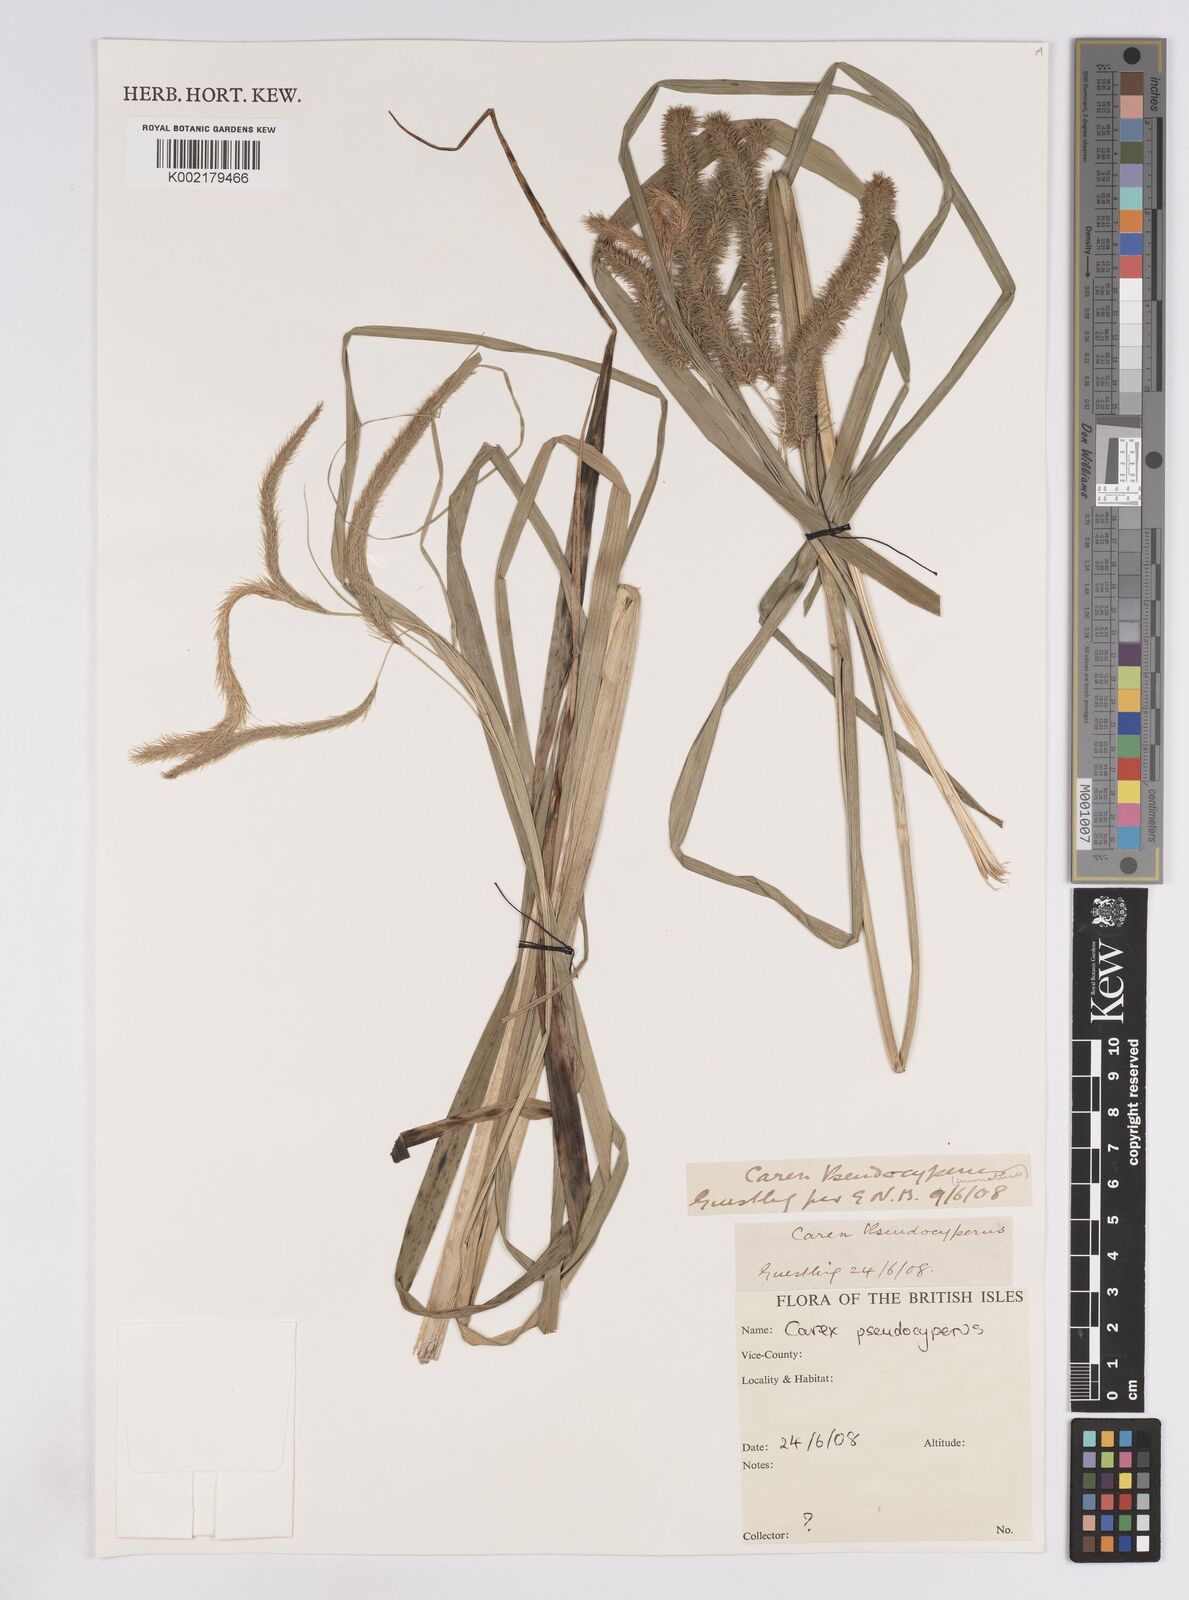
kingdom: Plantae
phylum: Tracheophyta
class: Liliopsida
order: Poales
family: Cyperaceae
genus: Carex
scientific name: Carex pseudocyperus
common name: Cyperus sedge
